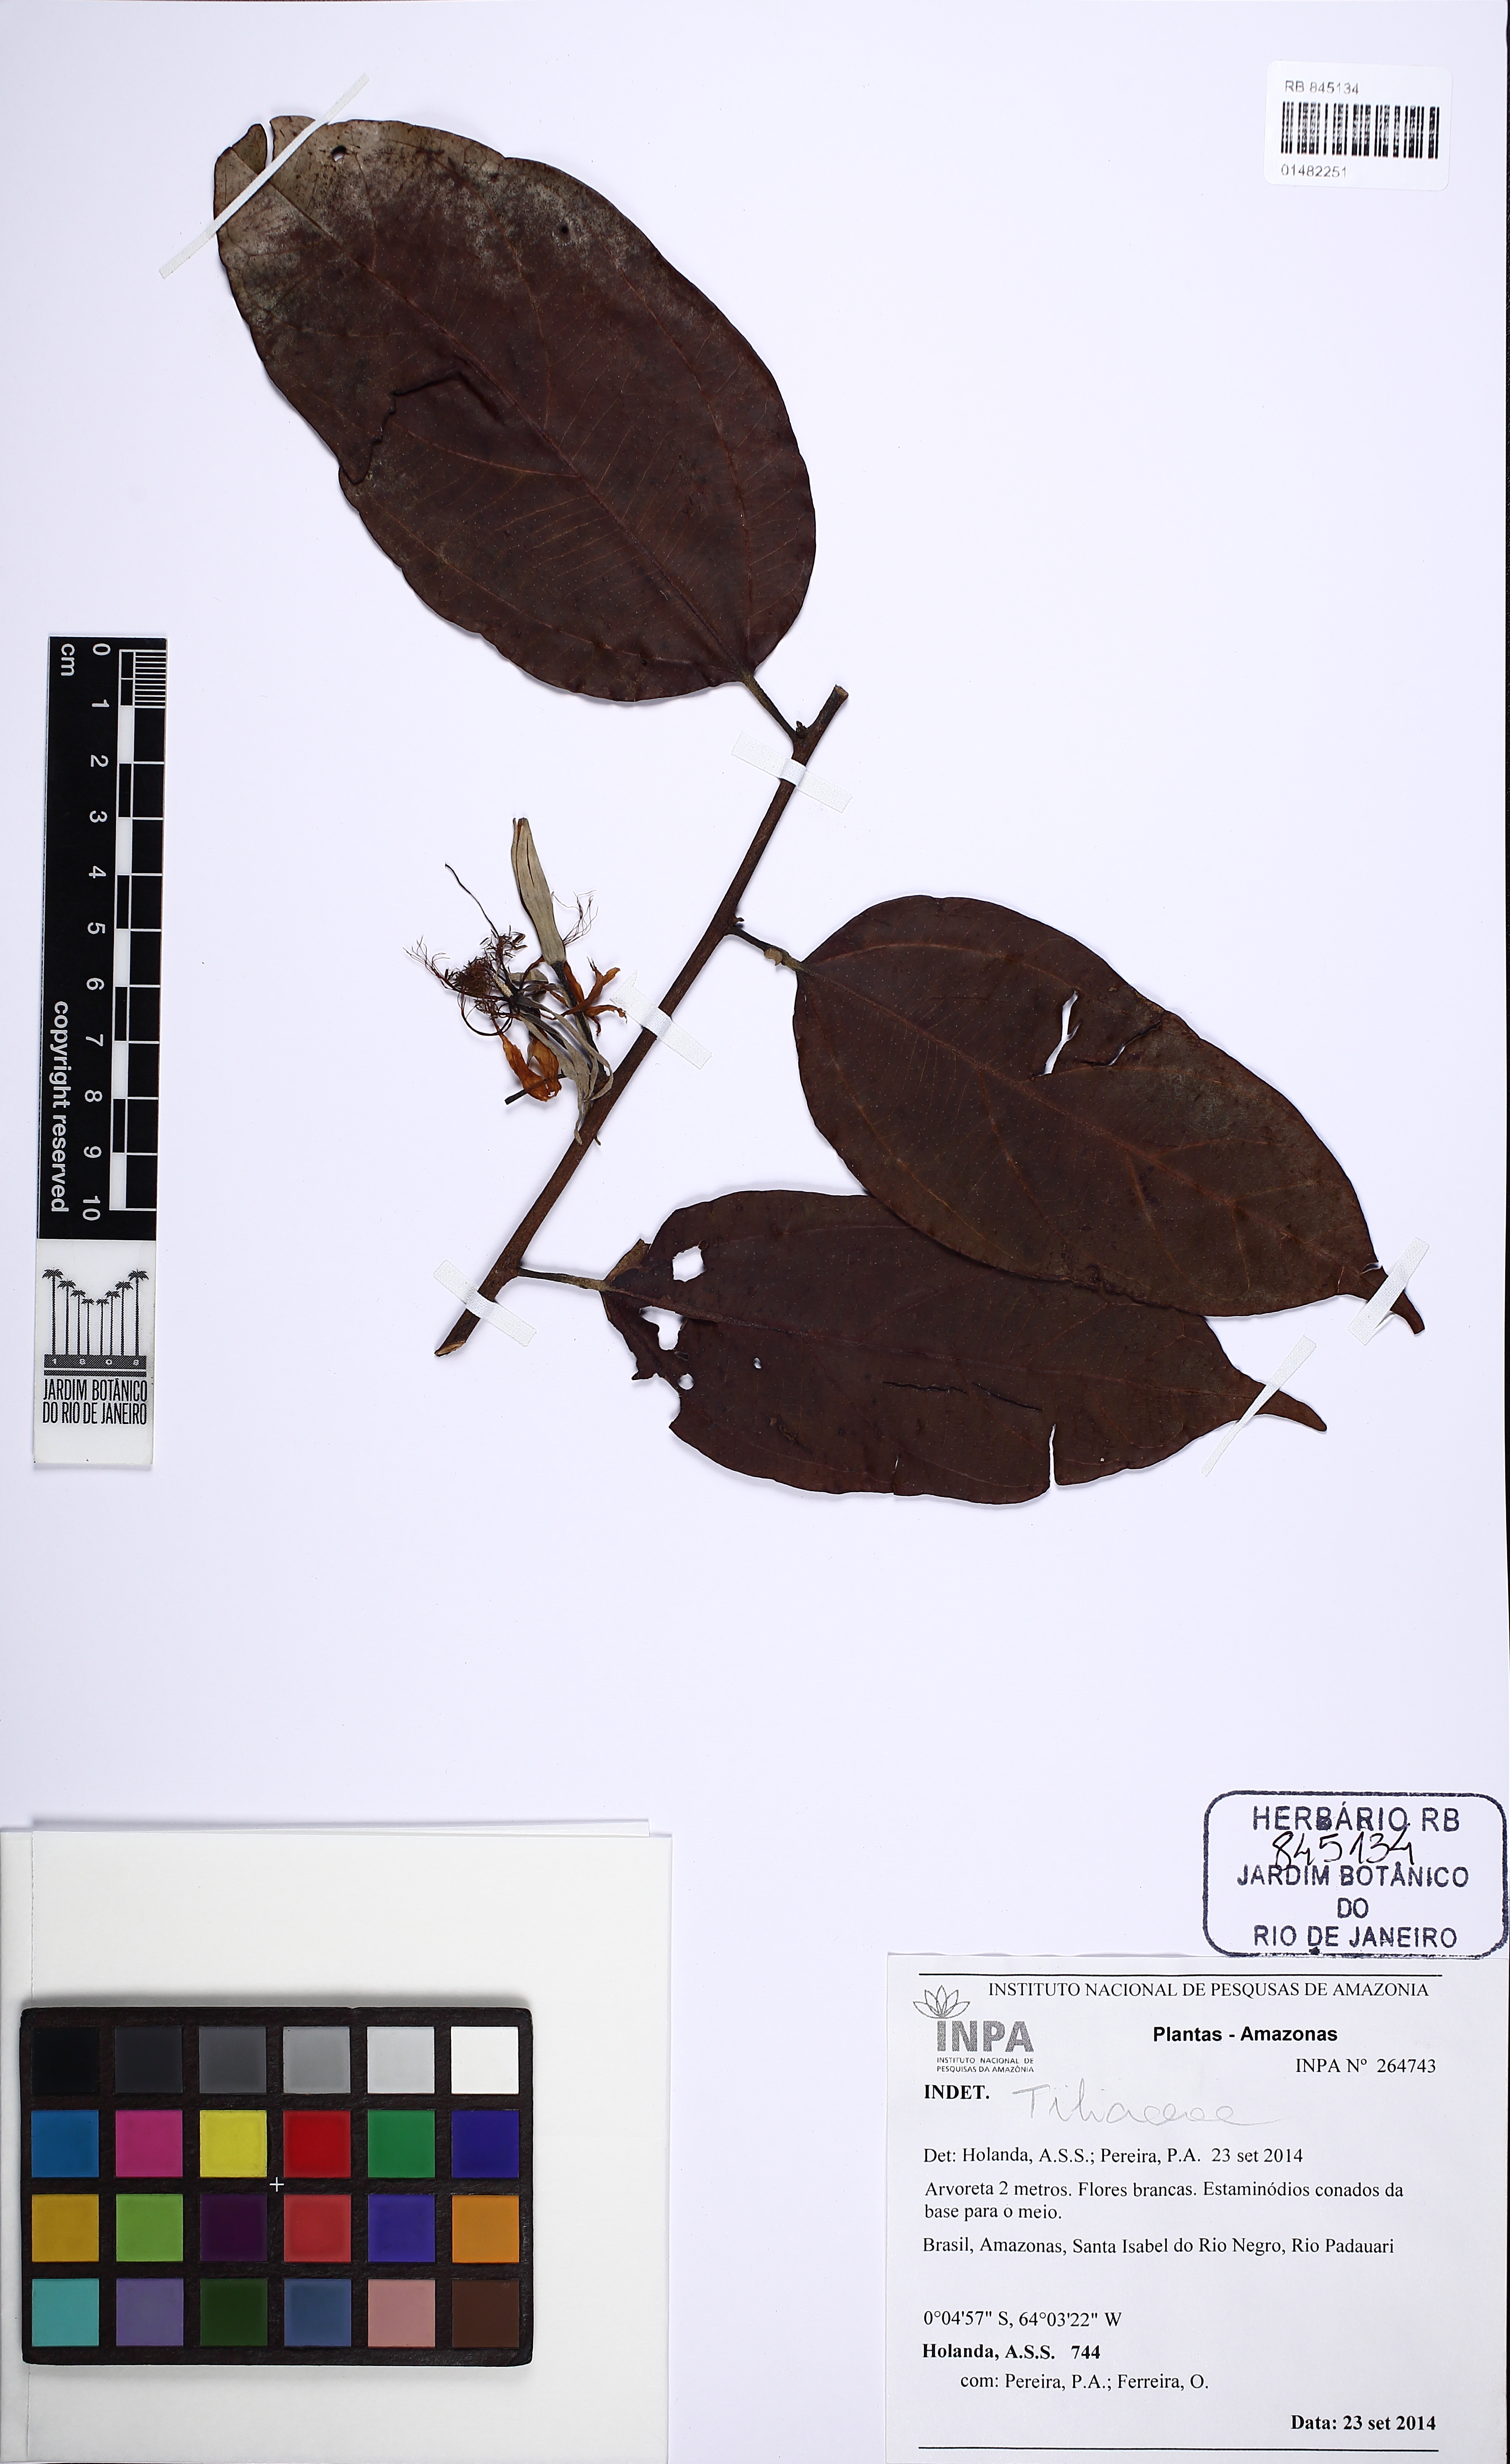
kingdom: Plantae
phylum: Tracheophyta
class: Magnoliopsida
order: Malvales
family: Malvaceae
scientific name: Malvaceae
